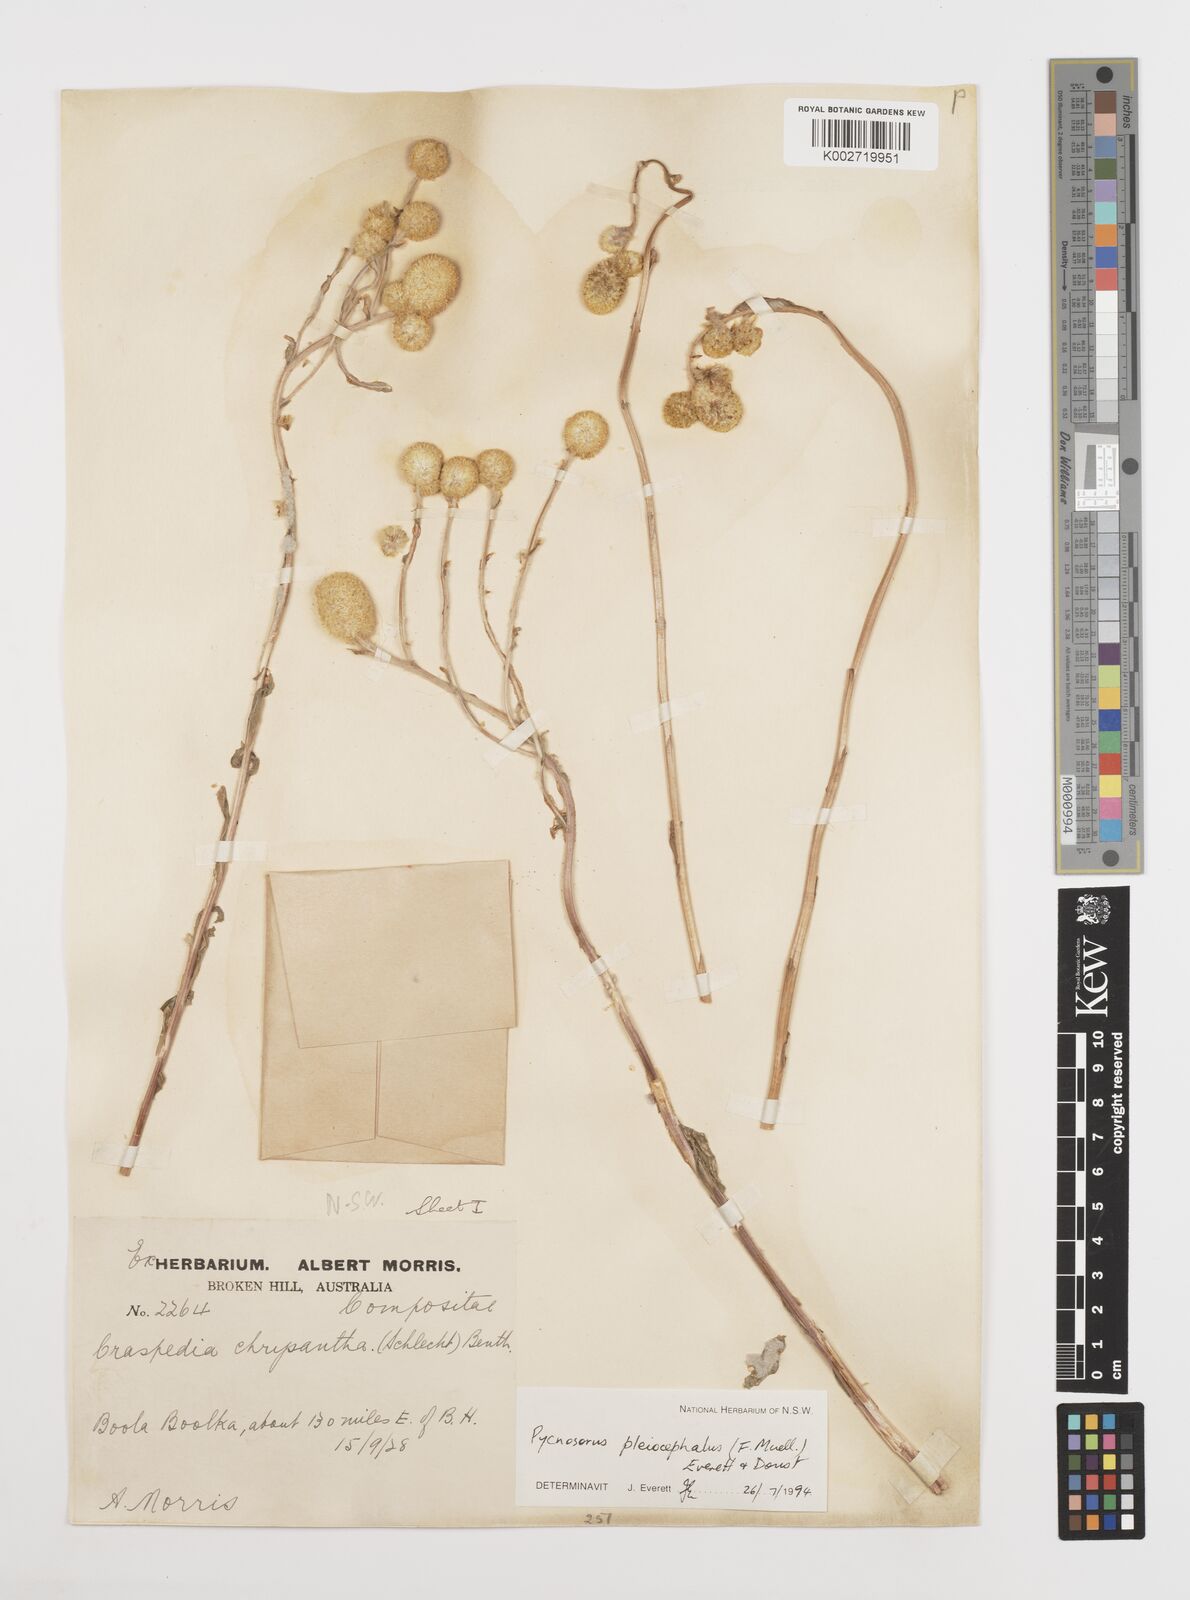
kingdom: Plantae
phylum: Tracheophyta
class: Magnoliopsida
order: Asterales
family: Asteraceae
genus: Pycnosorus
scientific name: Pycnosorus pleiocephalus
